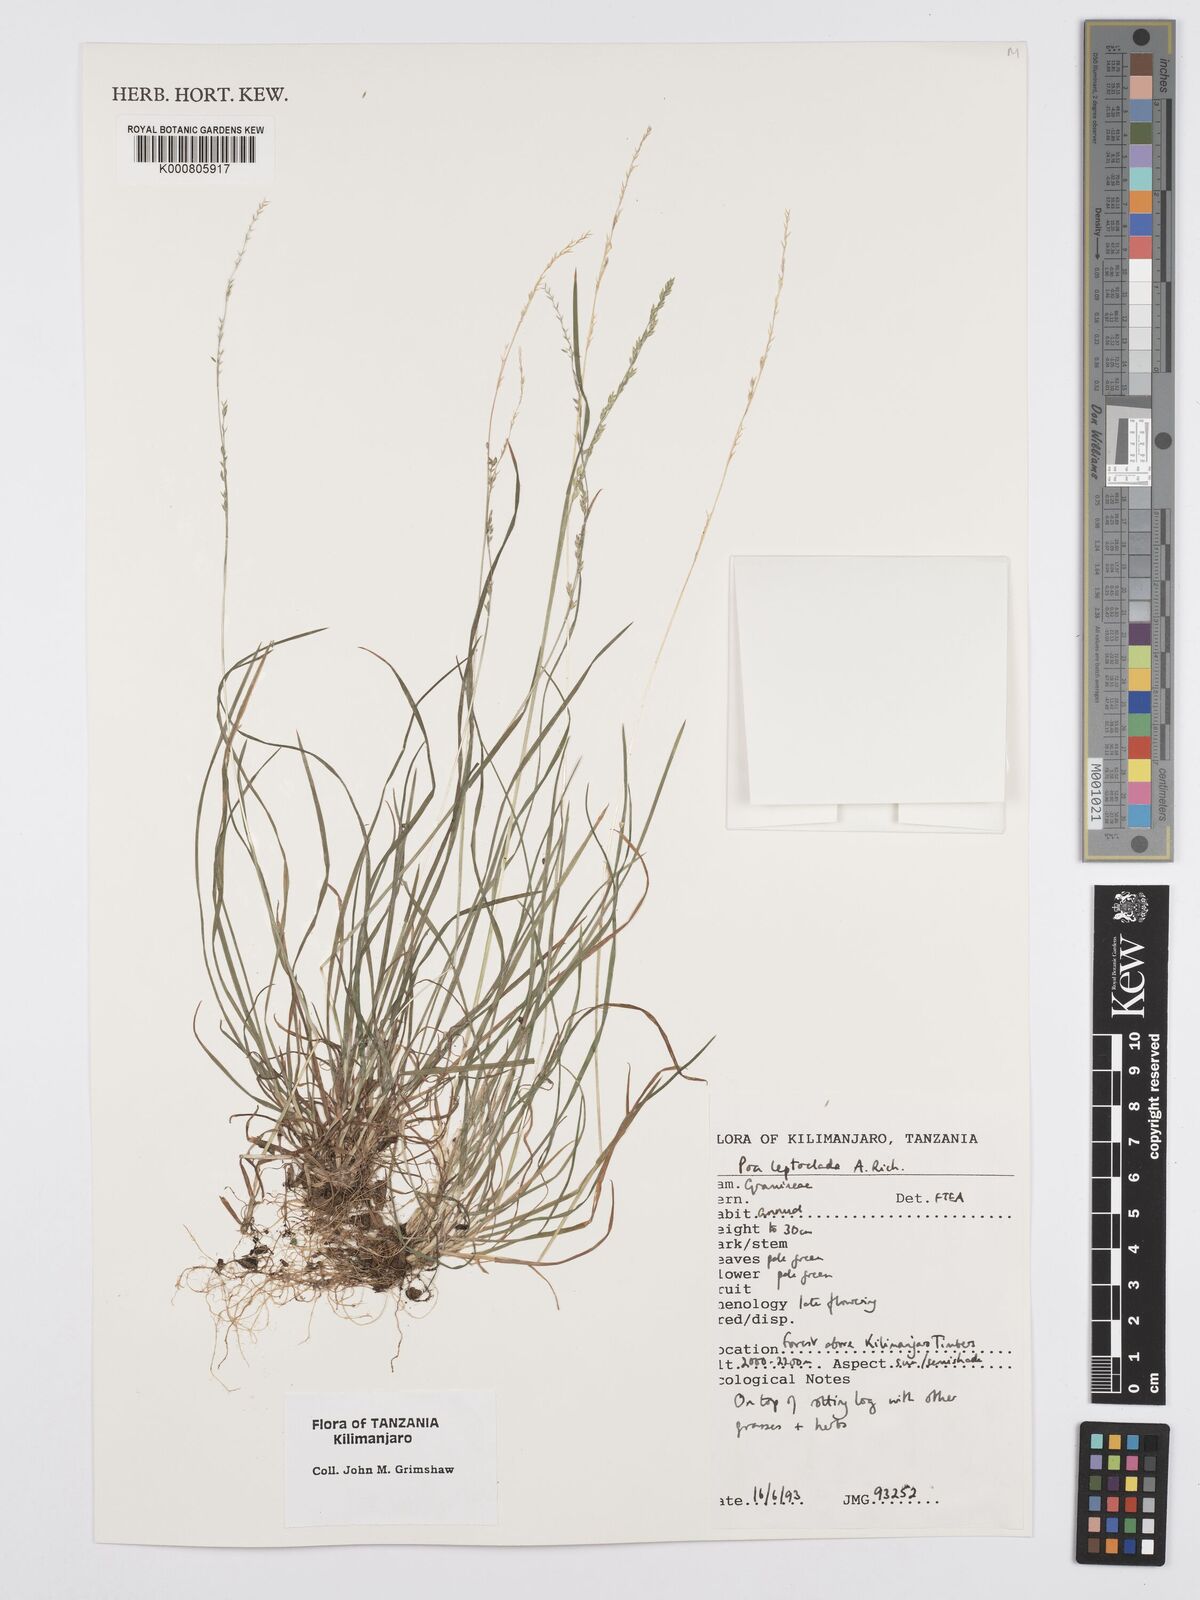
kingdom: Plantae
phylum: Tracheophyta
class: Liliopsida
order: Poales
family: Poaceae
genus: Poa
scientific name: Poa leptoclada
